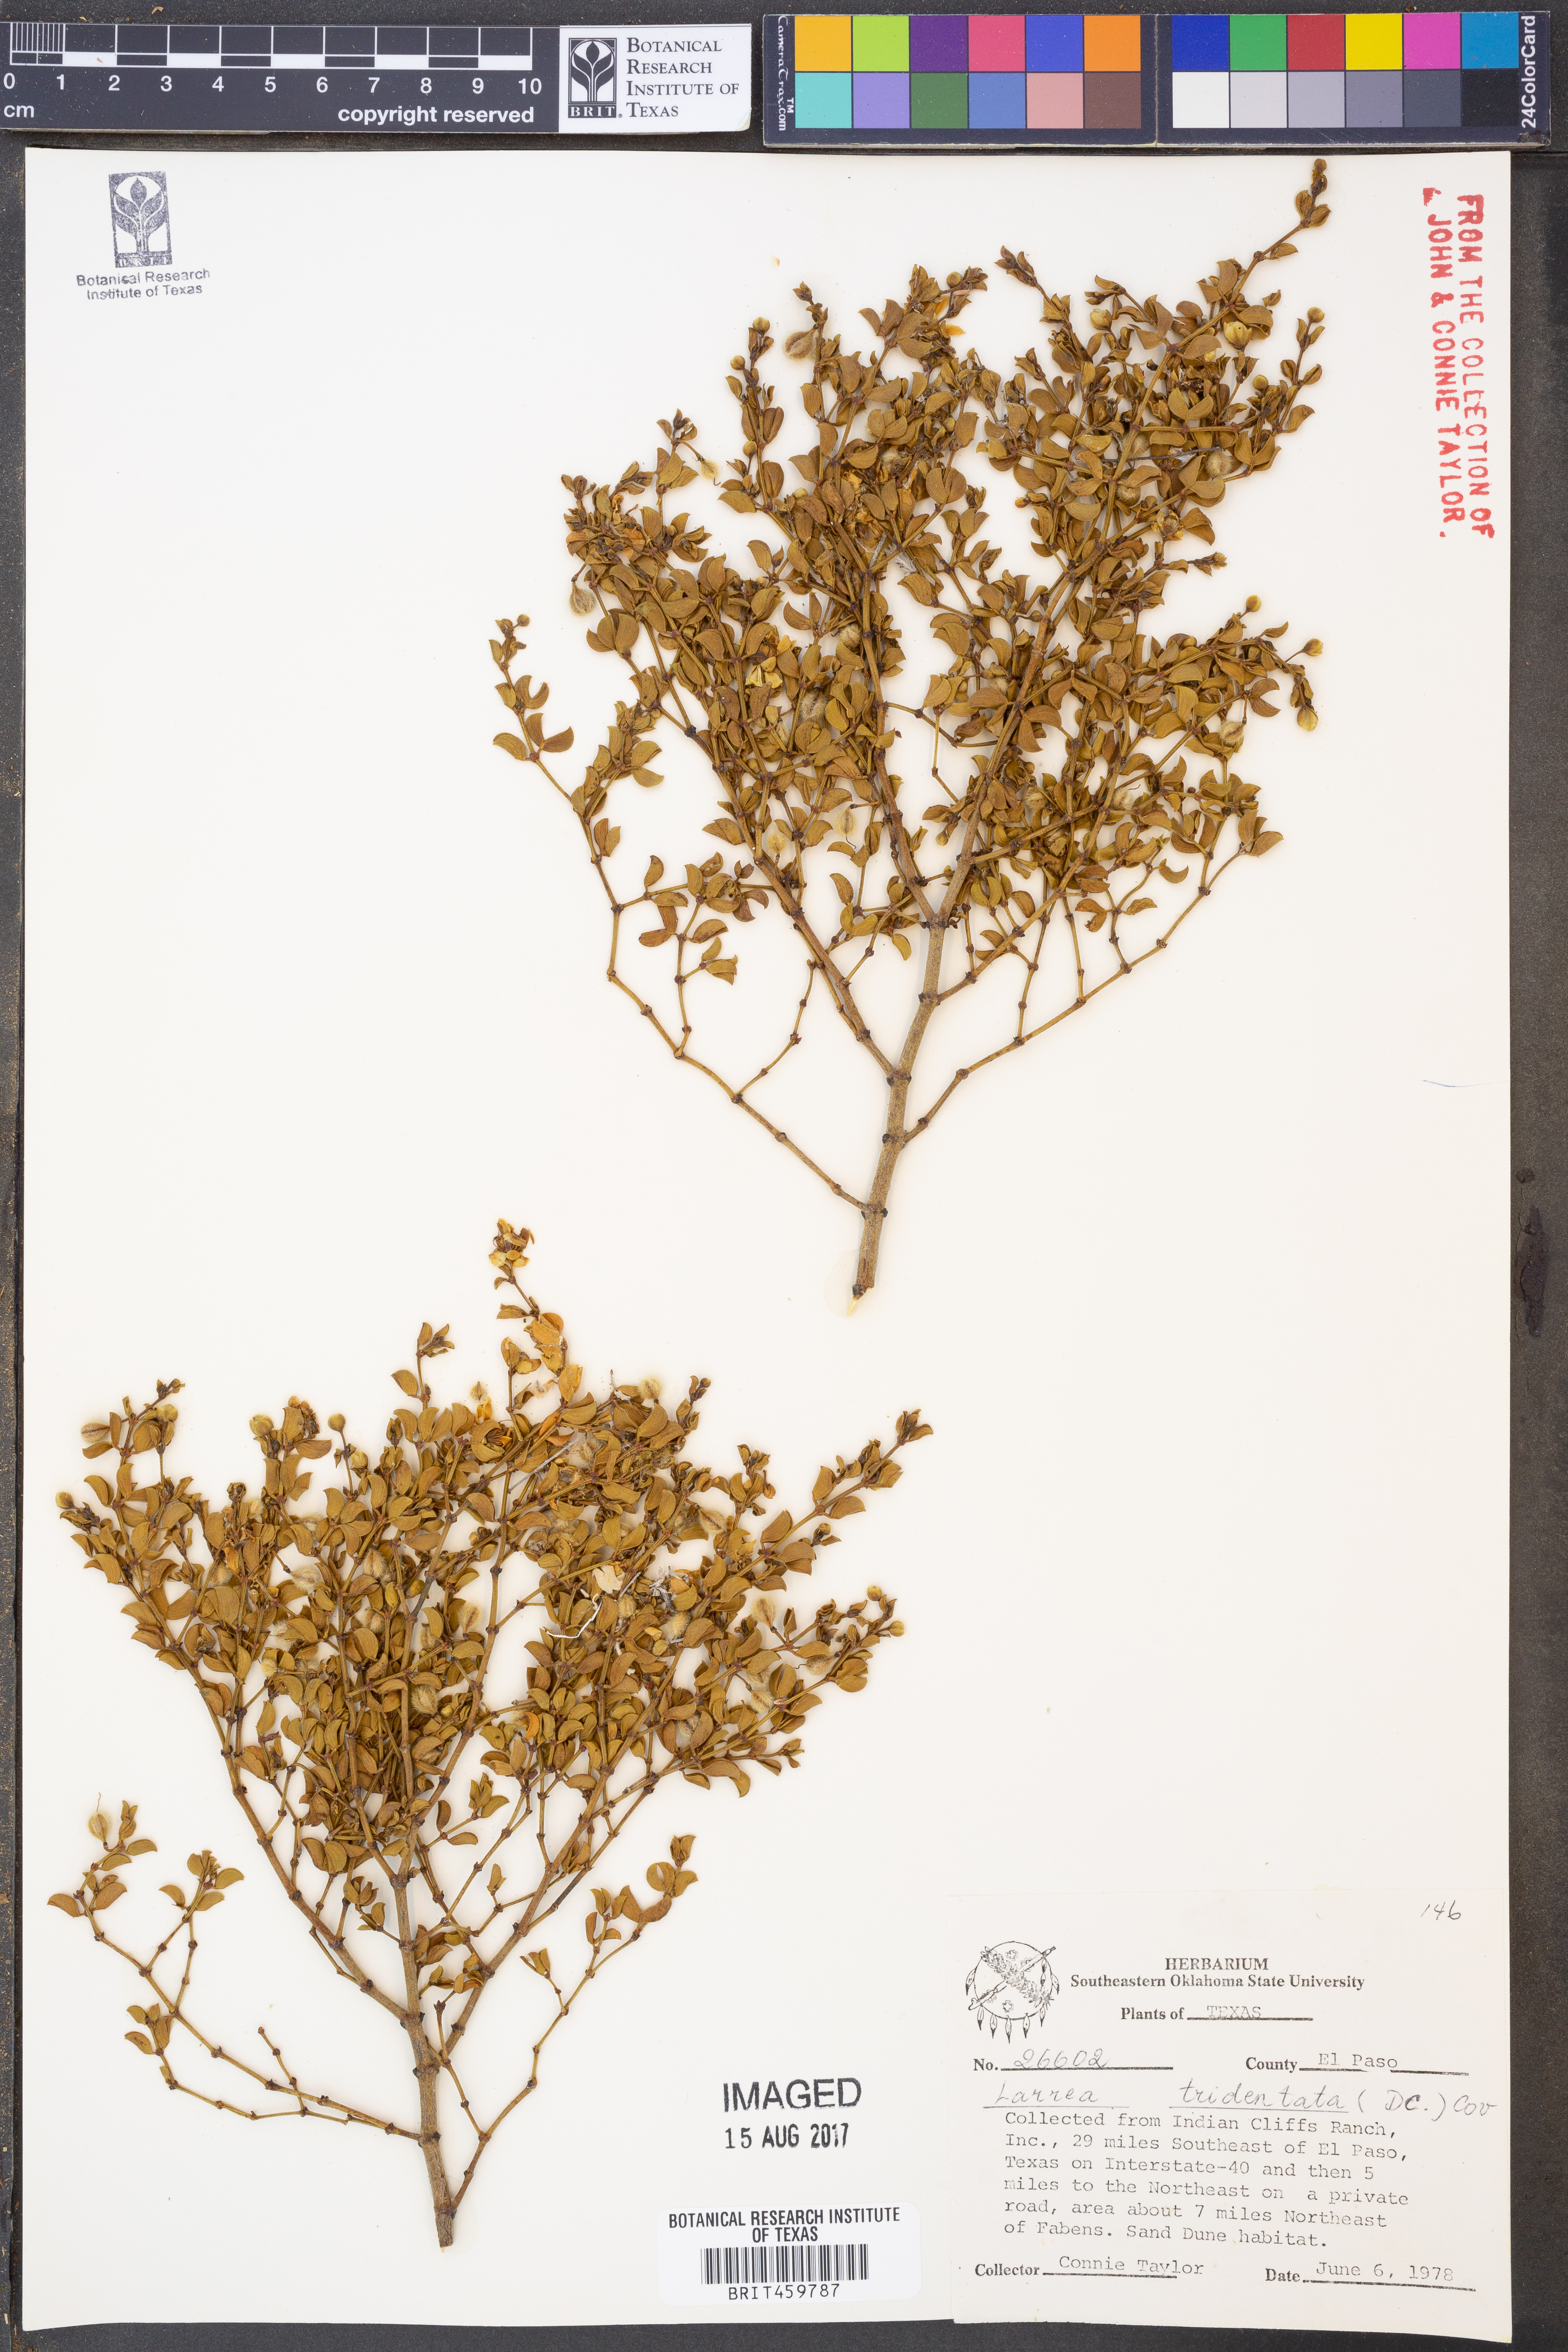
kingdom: Plantae
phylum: Tracheophyta
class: Magnoliopsida
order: Zygophyllales
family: Zygophyllaceae
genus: Larrea
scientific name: Larrea tridentata
